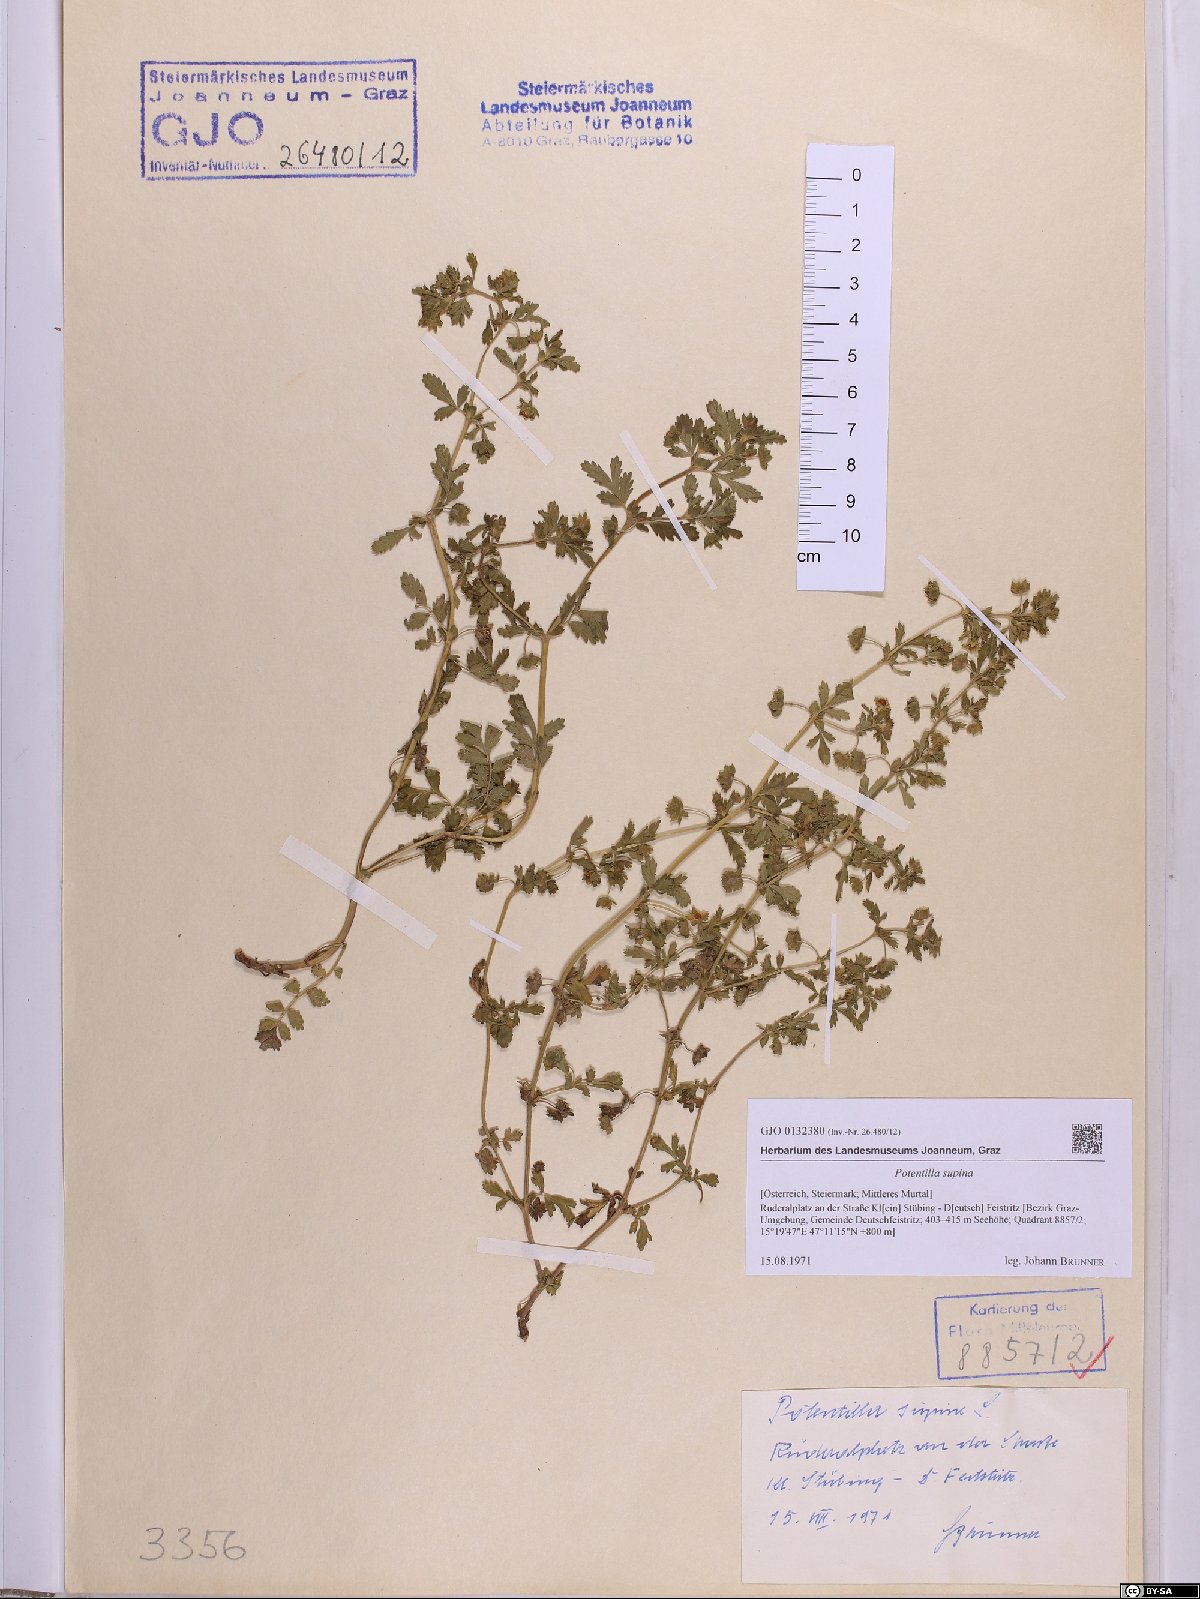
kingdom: Plantae
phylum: Tracheophyta
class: Magnoliopsida
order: Rosales
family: Rosaceae
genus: Potentilla
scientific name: Potentilla supina
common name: Prostrate cinquefoil
